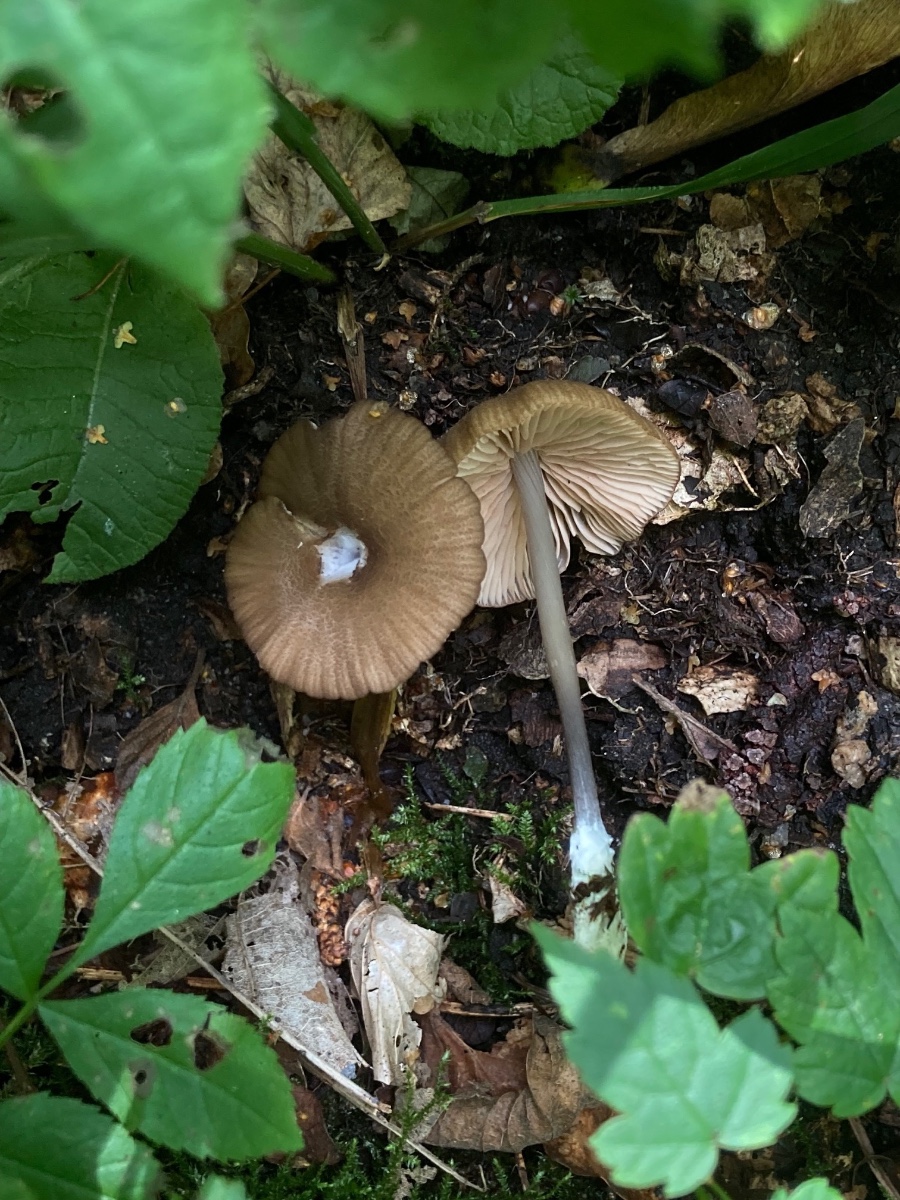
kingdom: Fungi
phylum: Basidiomycota
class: Agaricomycetes
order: Agaricales
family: Entolomataceae
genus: Entoloma
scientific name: Entoloma viiduense
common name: purpurbrun rødblad
